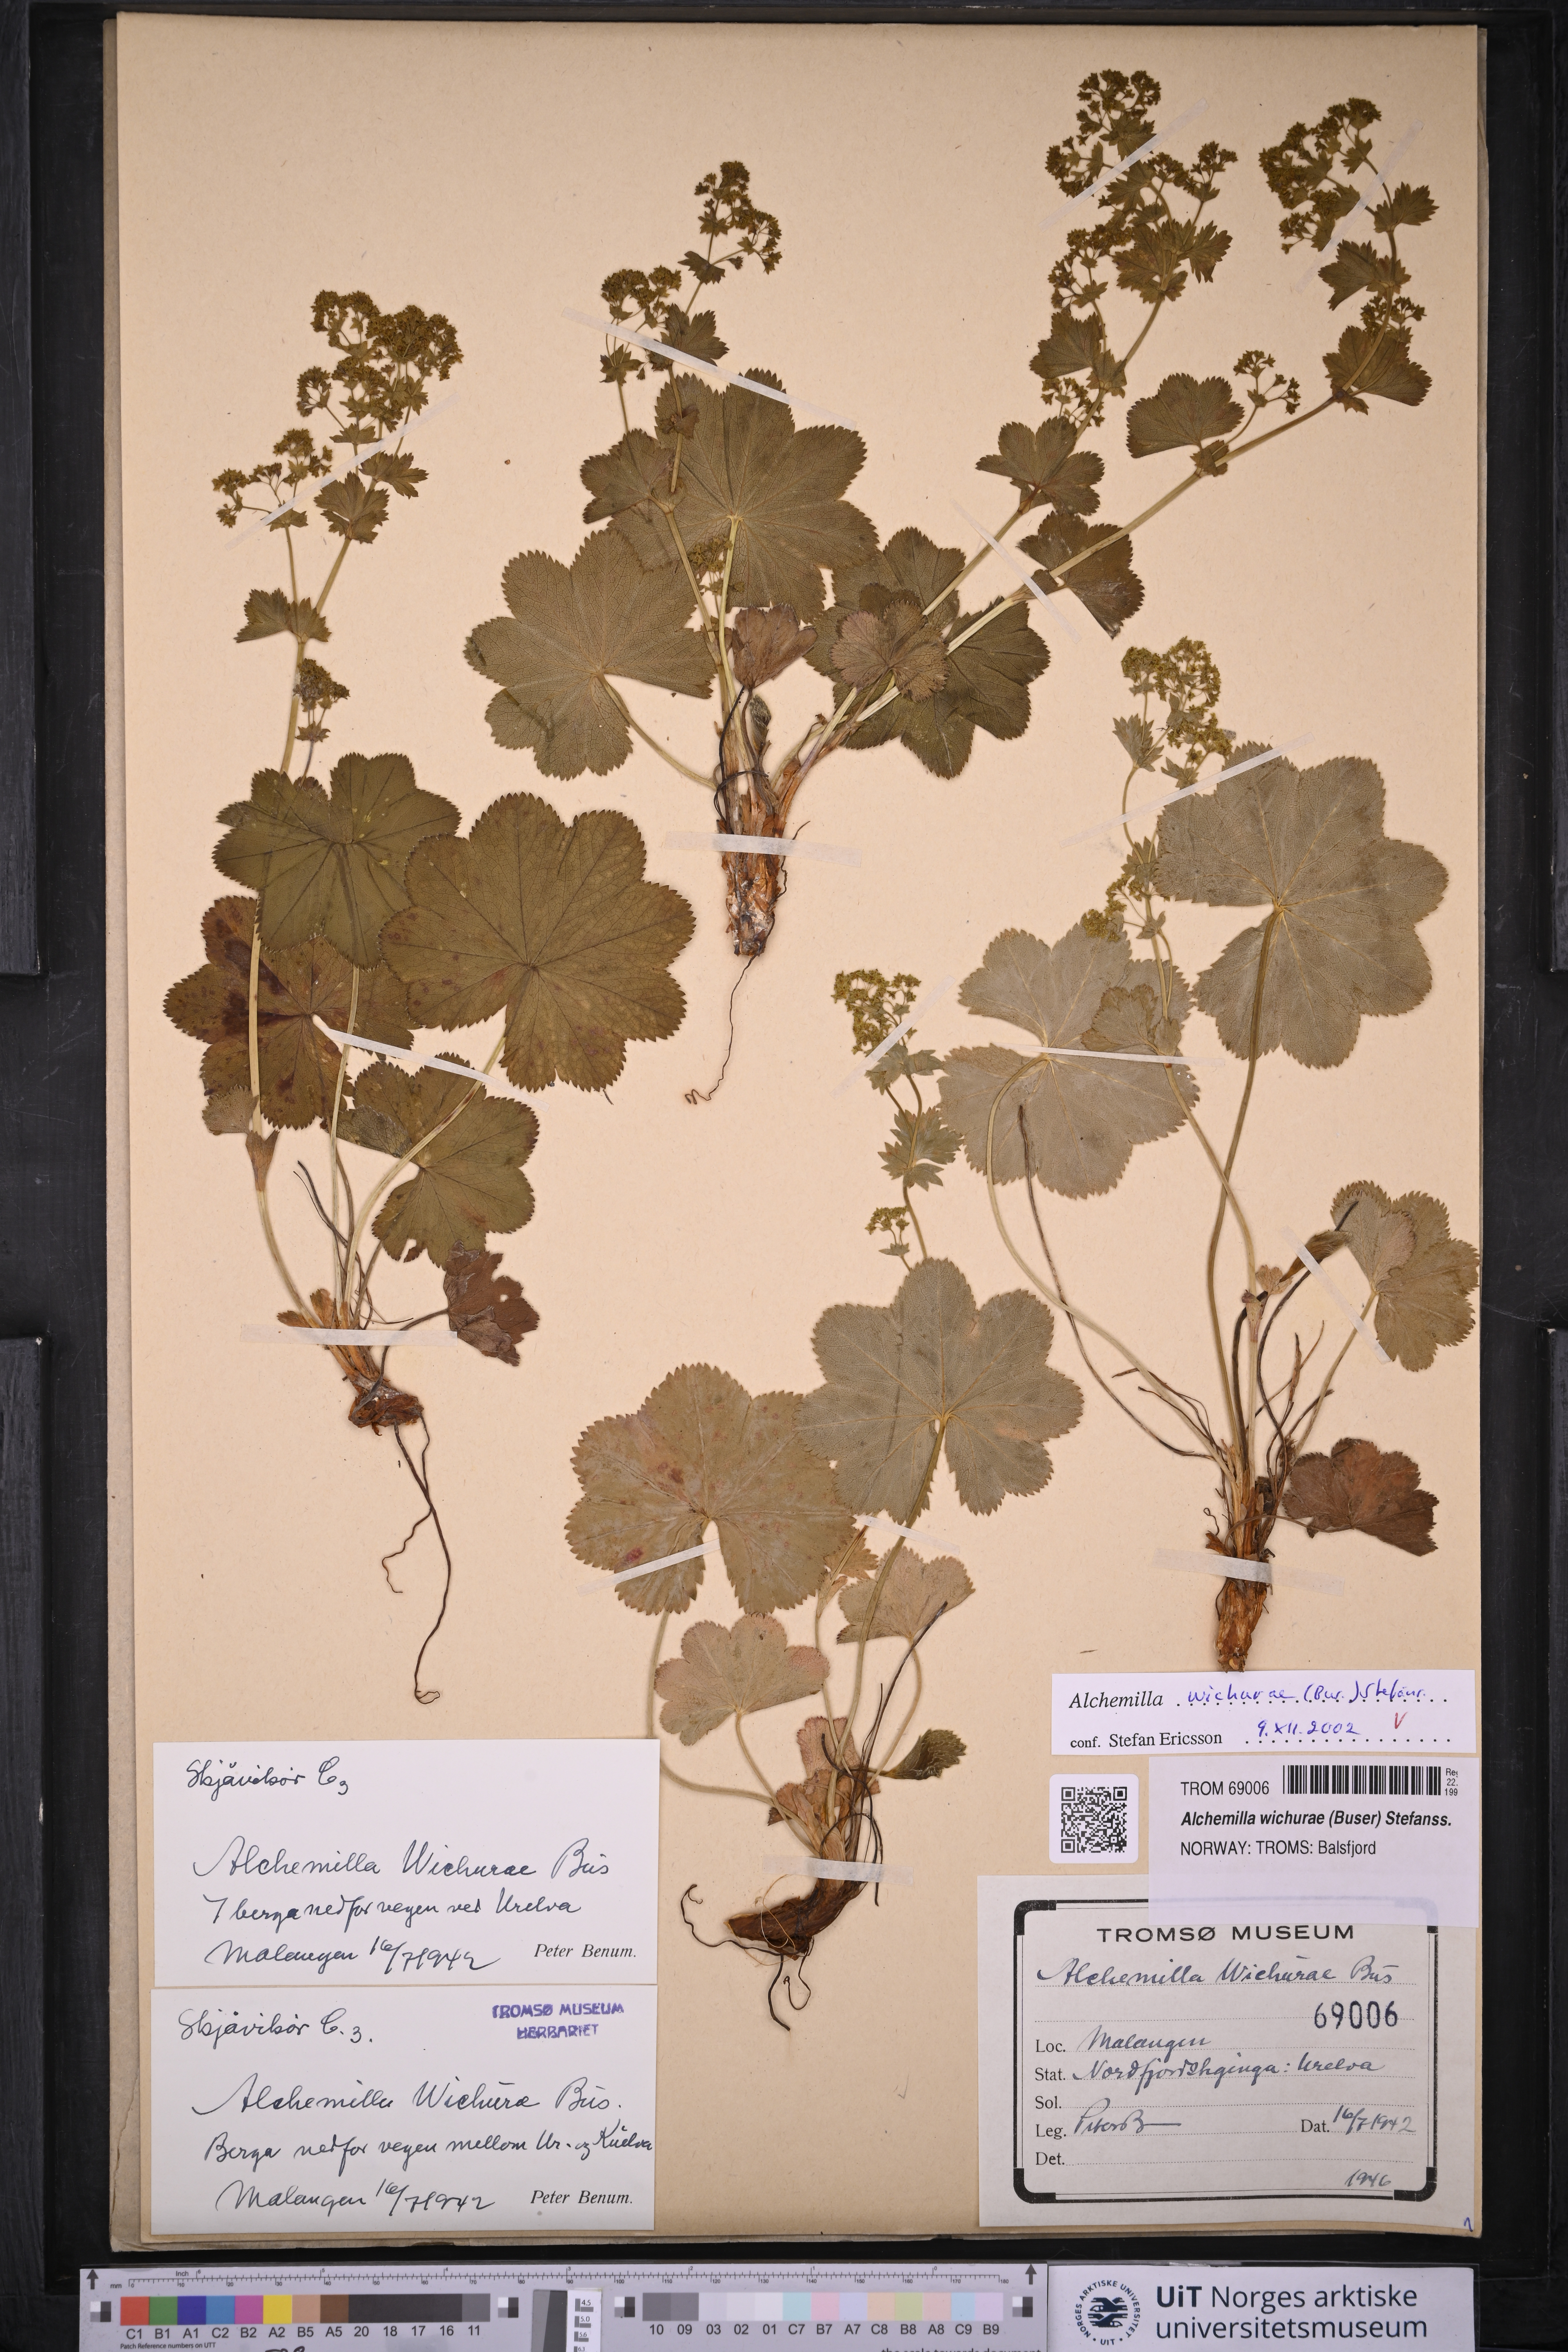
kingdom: Plantae
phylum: Tracheophyta
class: Magnoliopsida
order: Rosales
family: Rosaceae
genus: Alchemilla
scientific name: Alchemilla wichurae
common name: Rock lady's mantle
